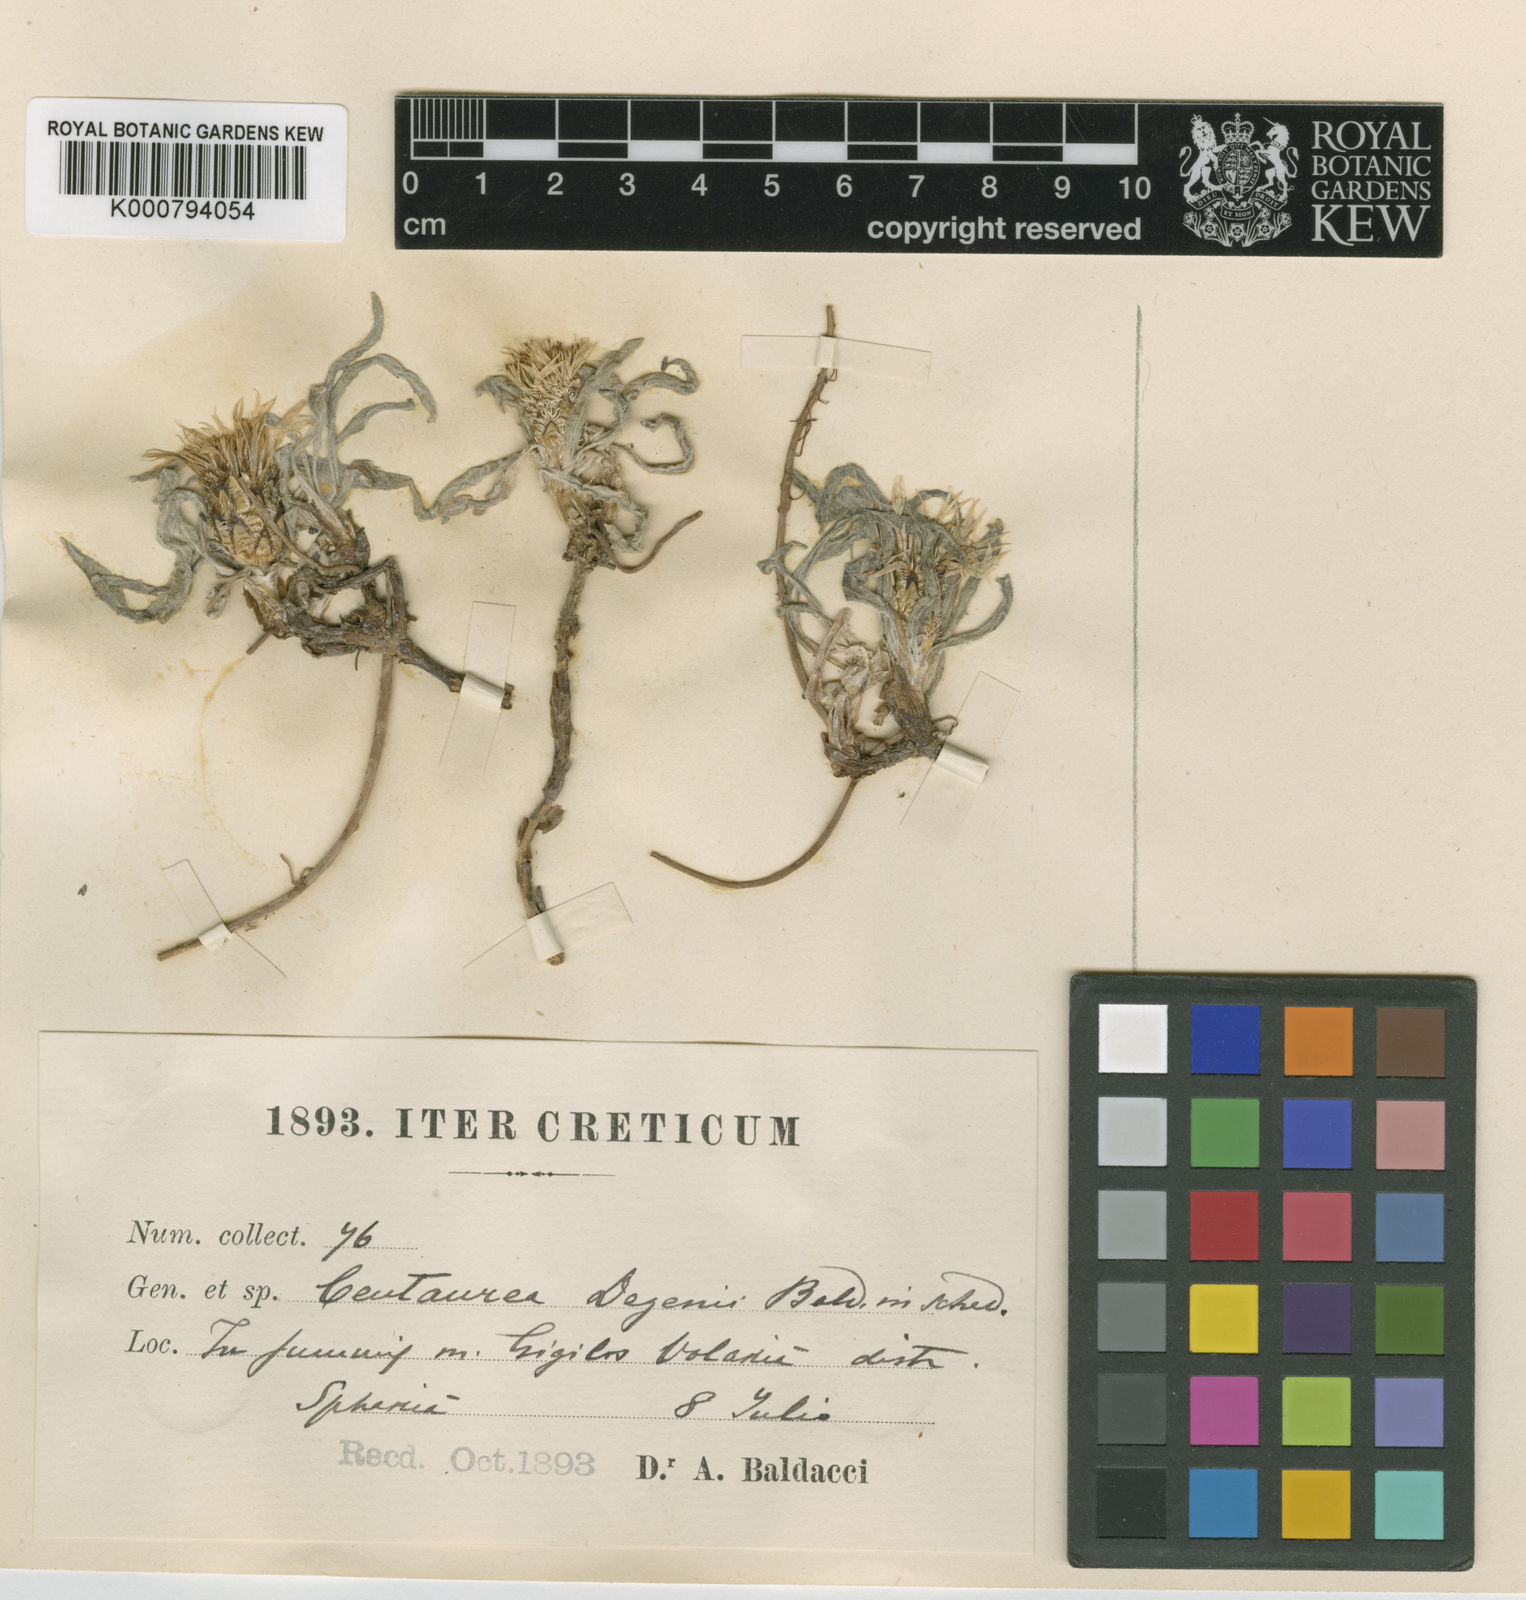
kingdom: Plantae
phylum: Tracheophyta
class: Magnoliopsida
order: Asterales
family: Asteraceae
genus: Rhaponticoides
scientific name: Rhaponticoides alpina
